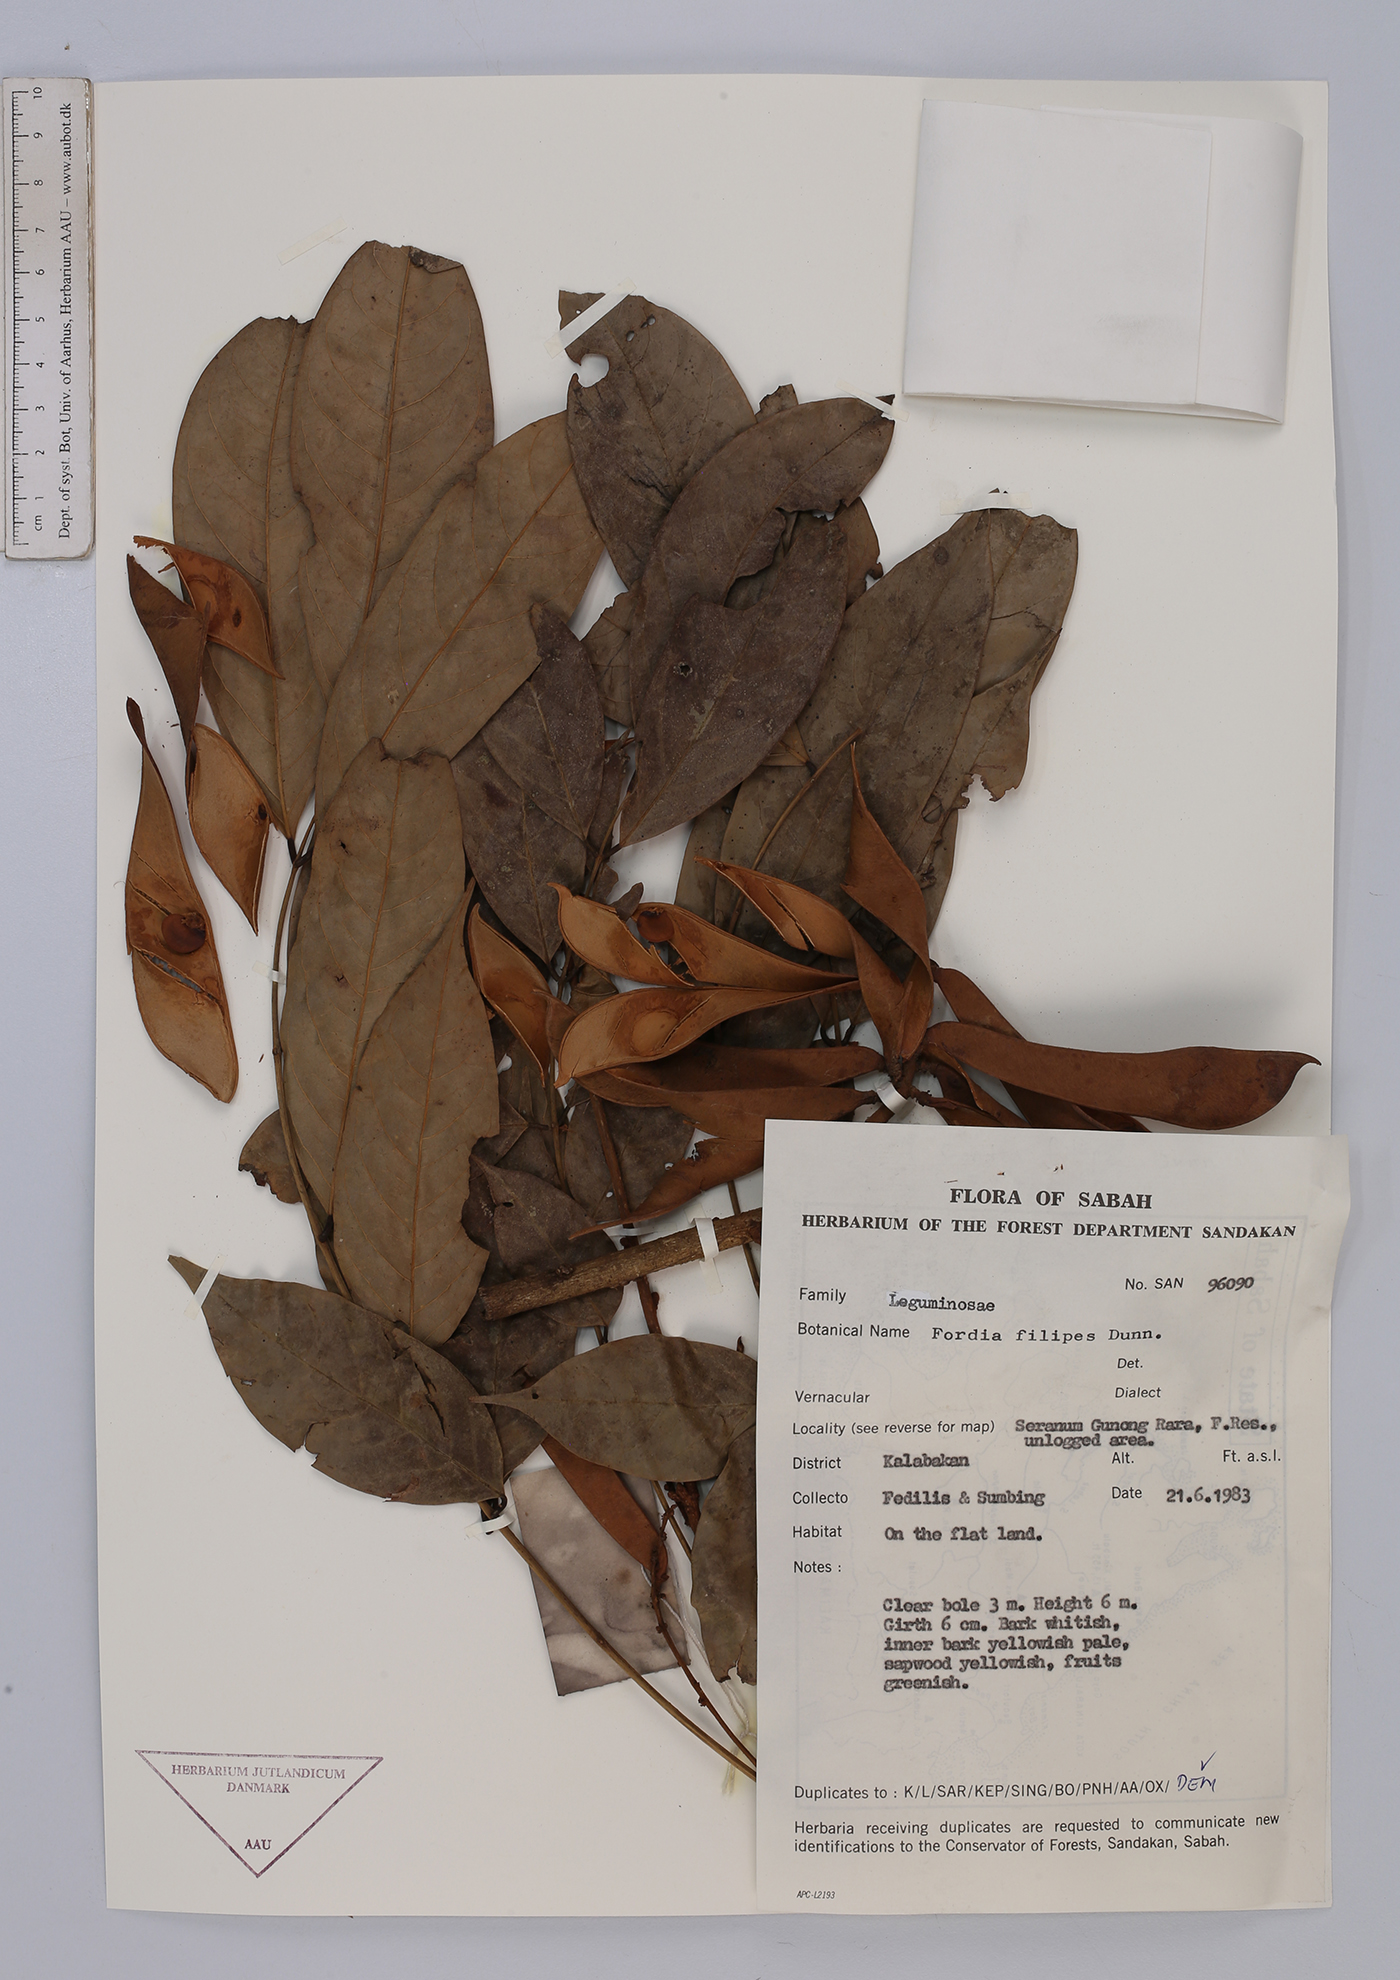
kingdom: Plantae
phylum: Tracheophyta
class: Magnoliopsida
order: Fabales
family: Fabaceae
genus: Fordia
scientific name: Fordia splendidissima
